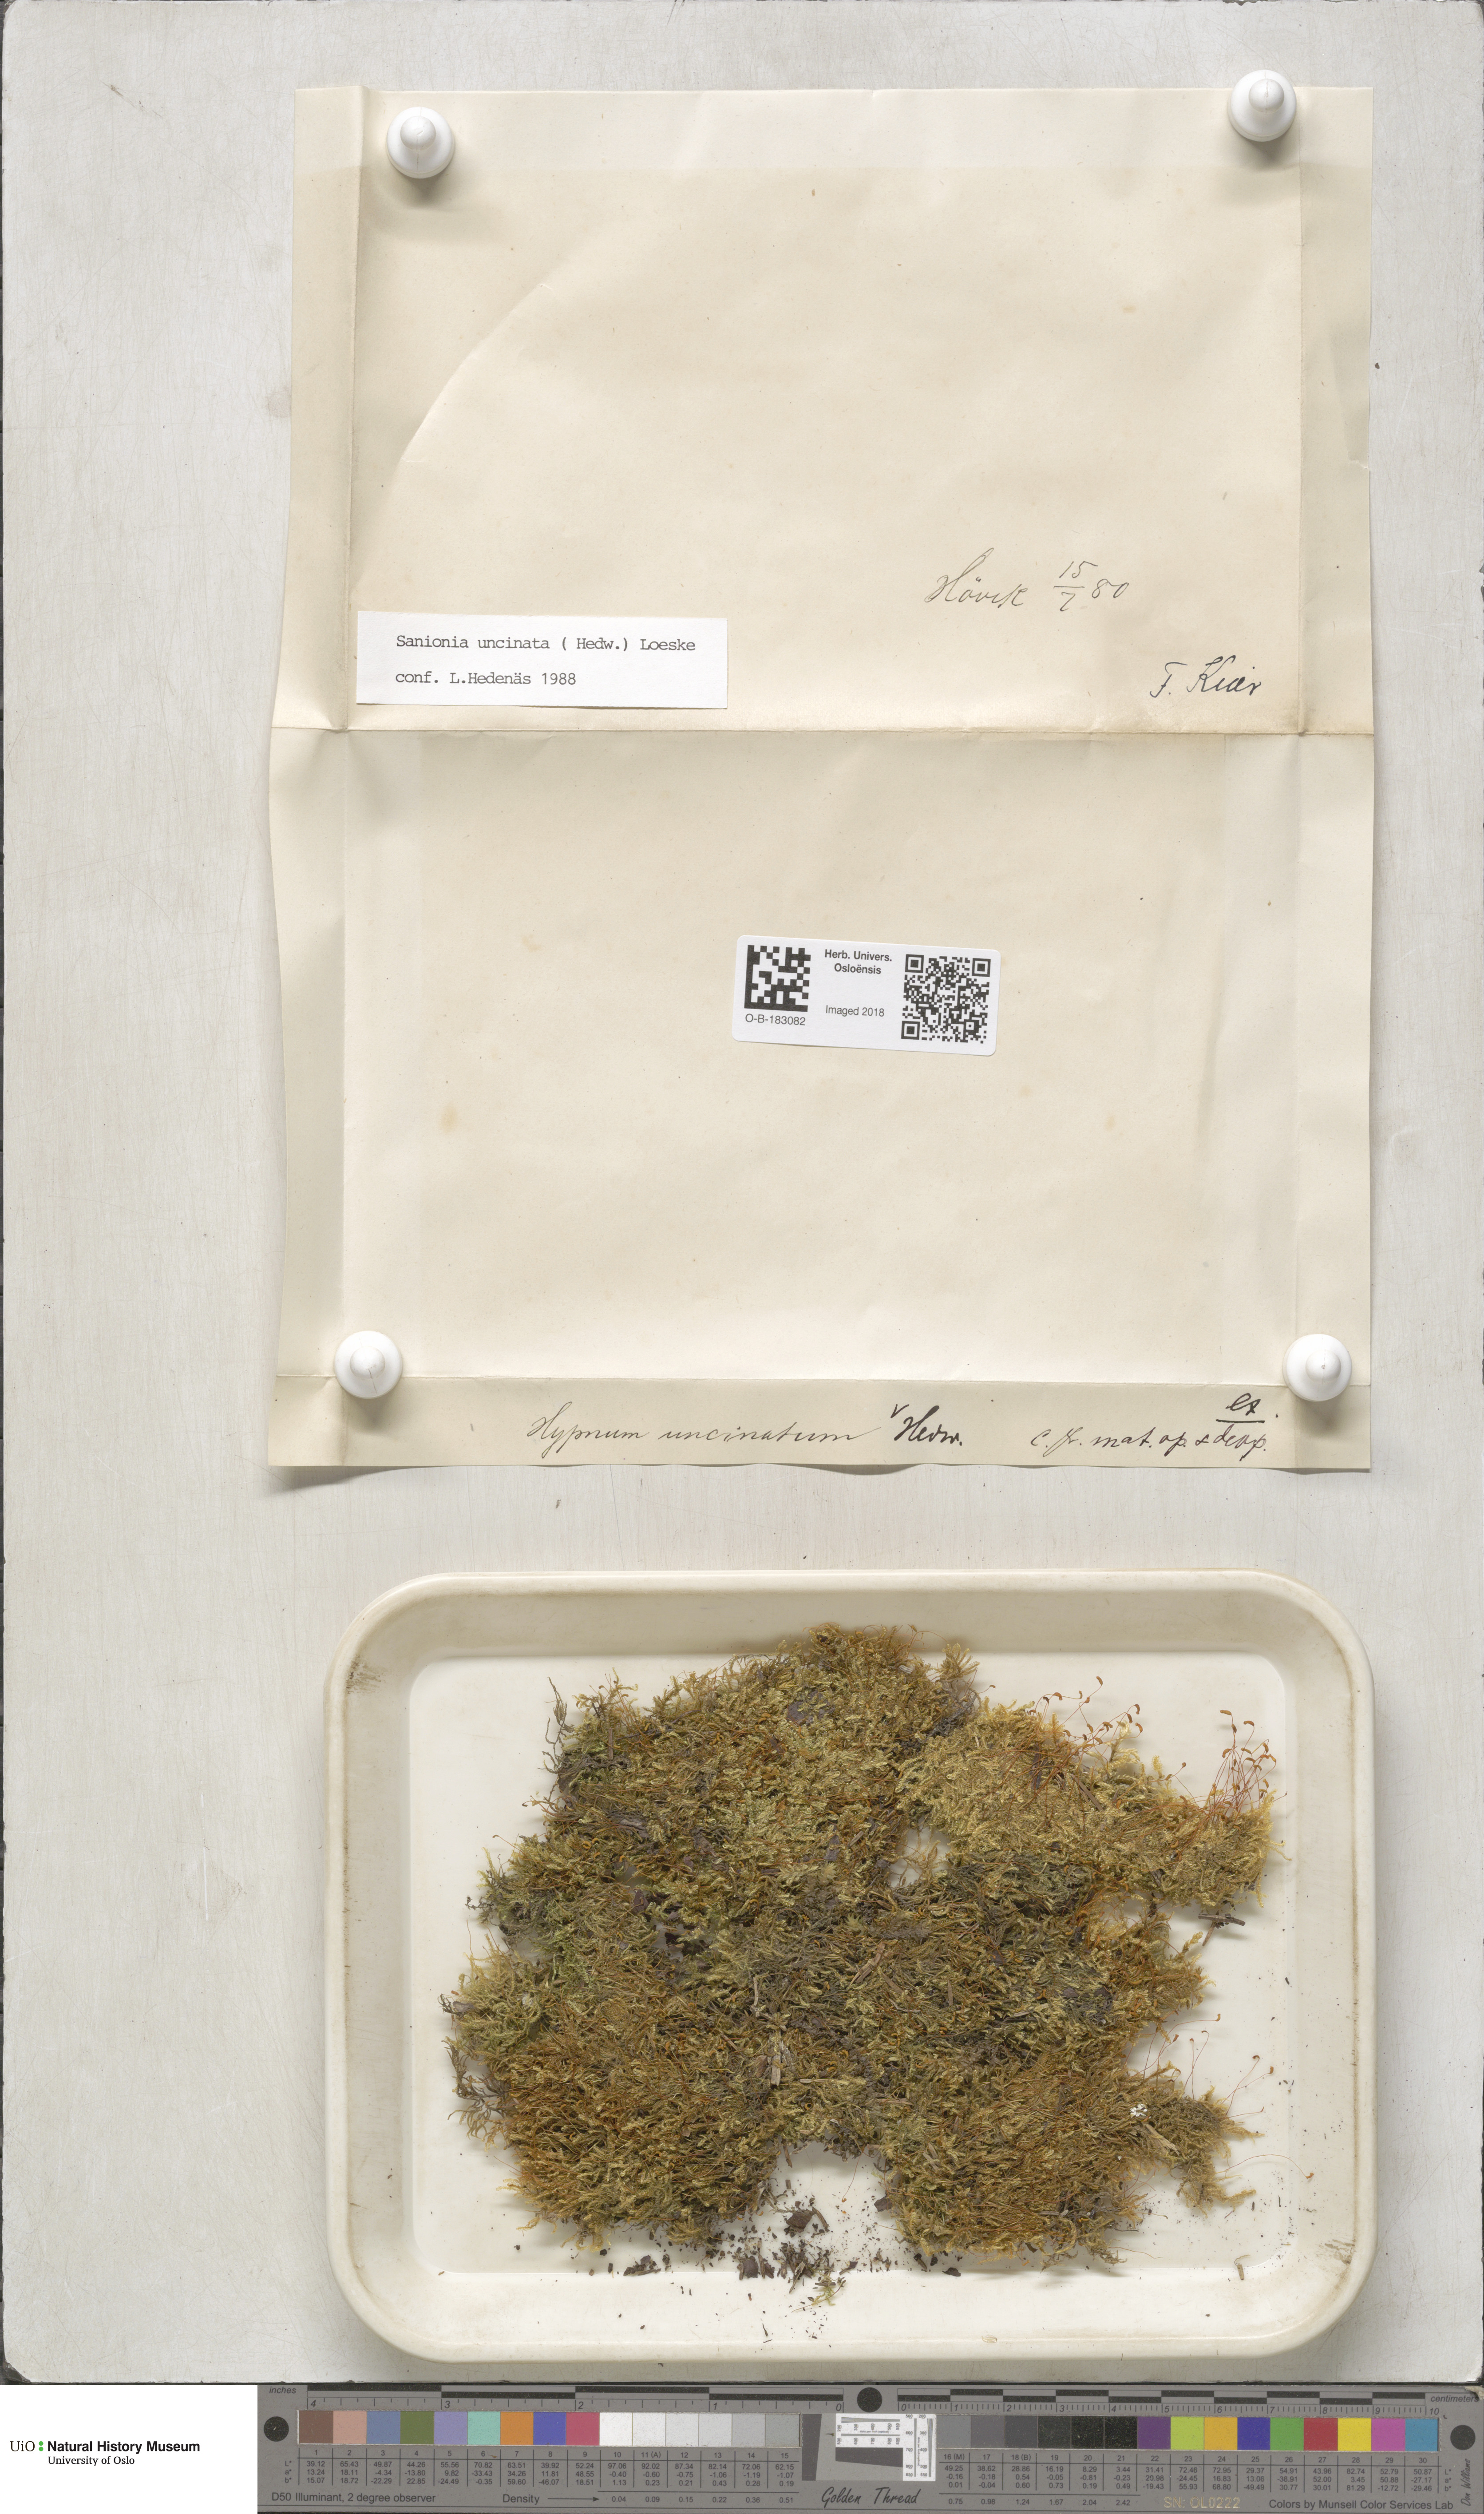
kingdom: Plantae
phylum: Bryophyta
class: Bryopsida
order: Hypnales
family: Scorpidiaceae
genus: Sanionia
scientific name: Sanionia uncinata
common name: Sickle moss
